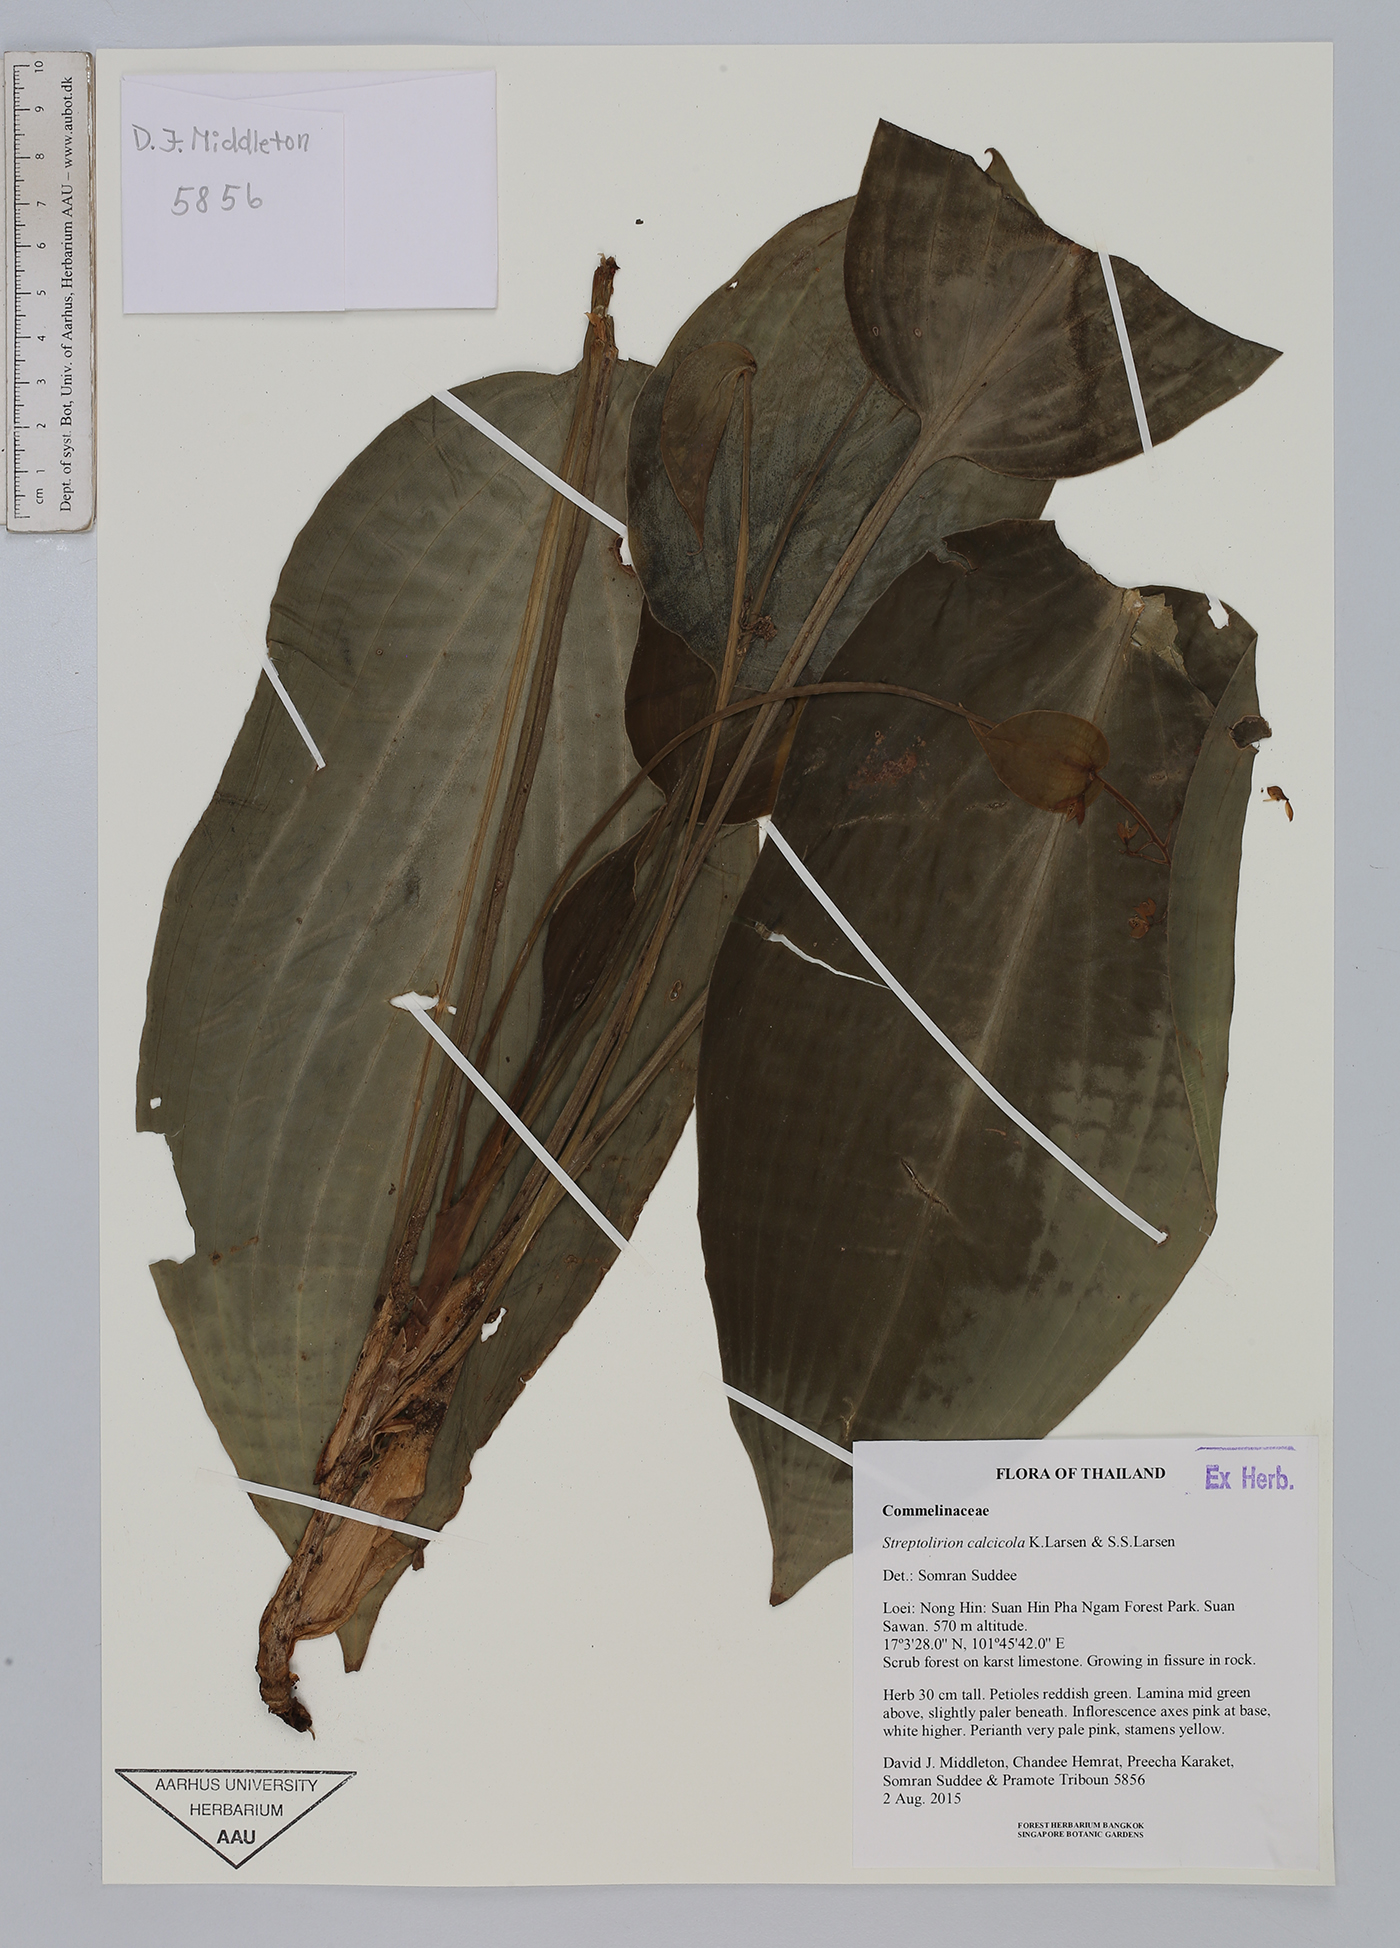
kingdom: Plantae
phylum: Tracheophyta
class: Liliopsida
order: Commelinales
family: Commelinaceae
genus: Spatholirion
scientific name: Spatholirion calcicola
